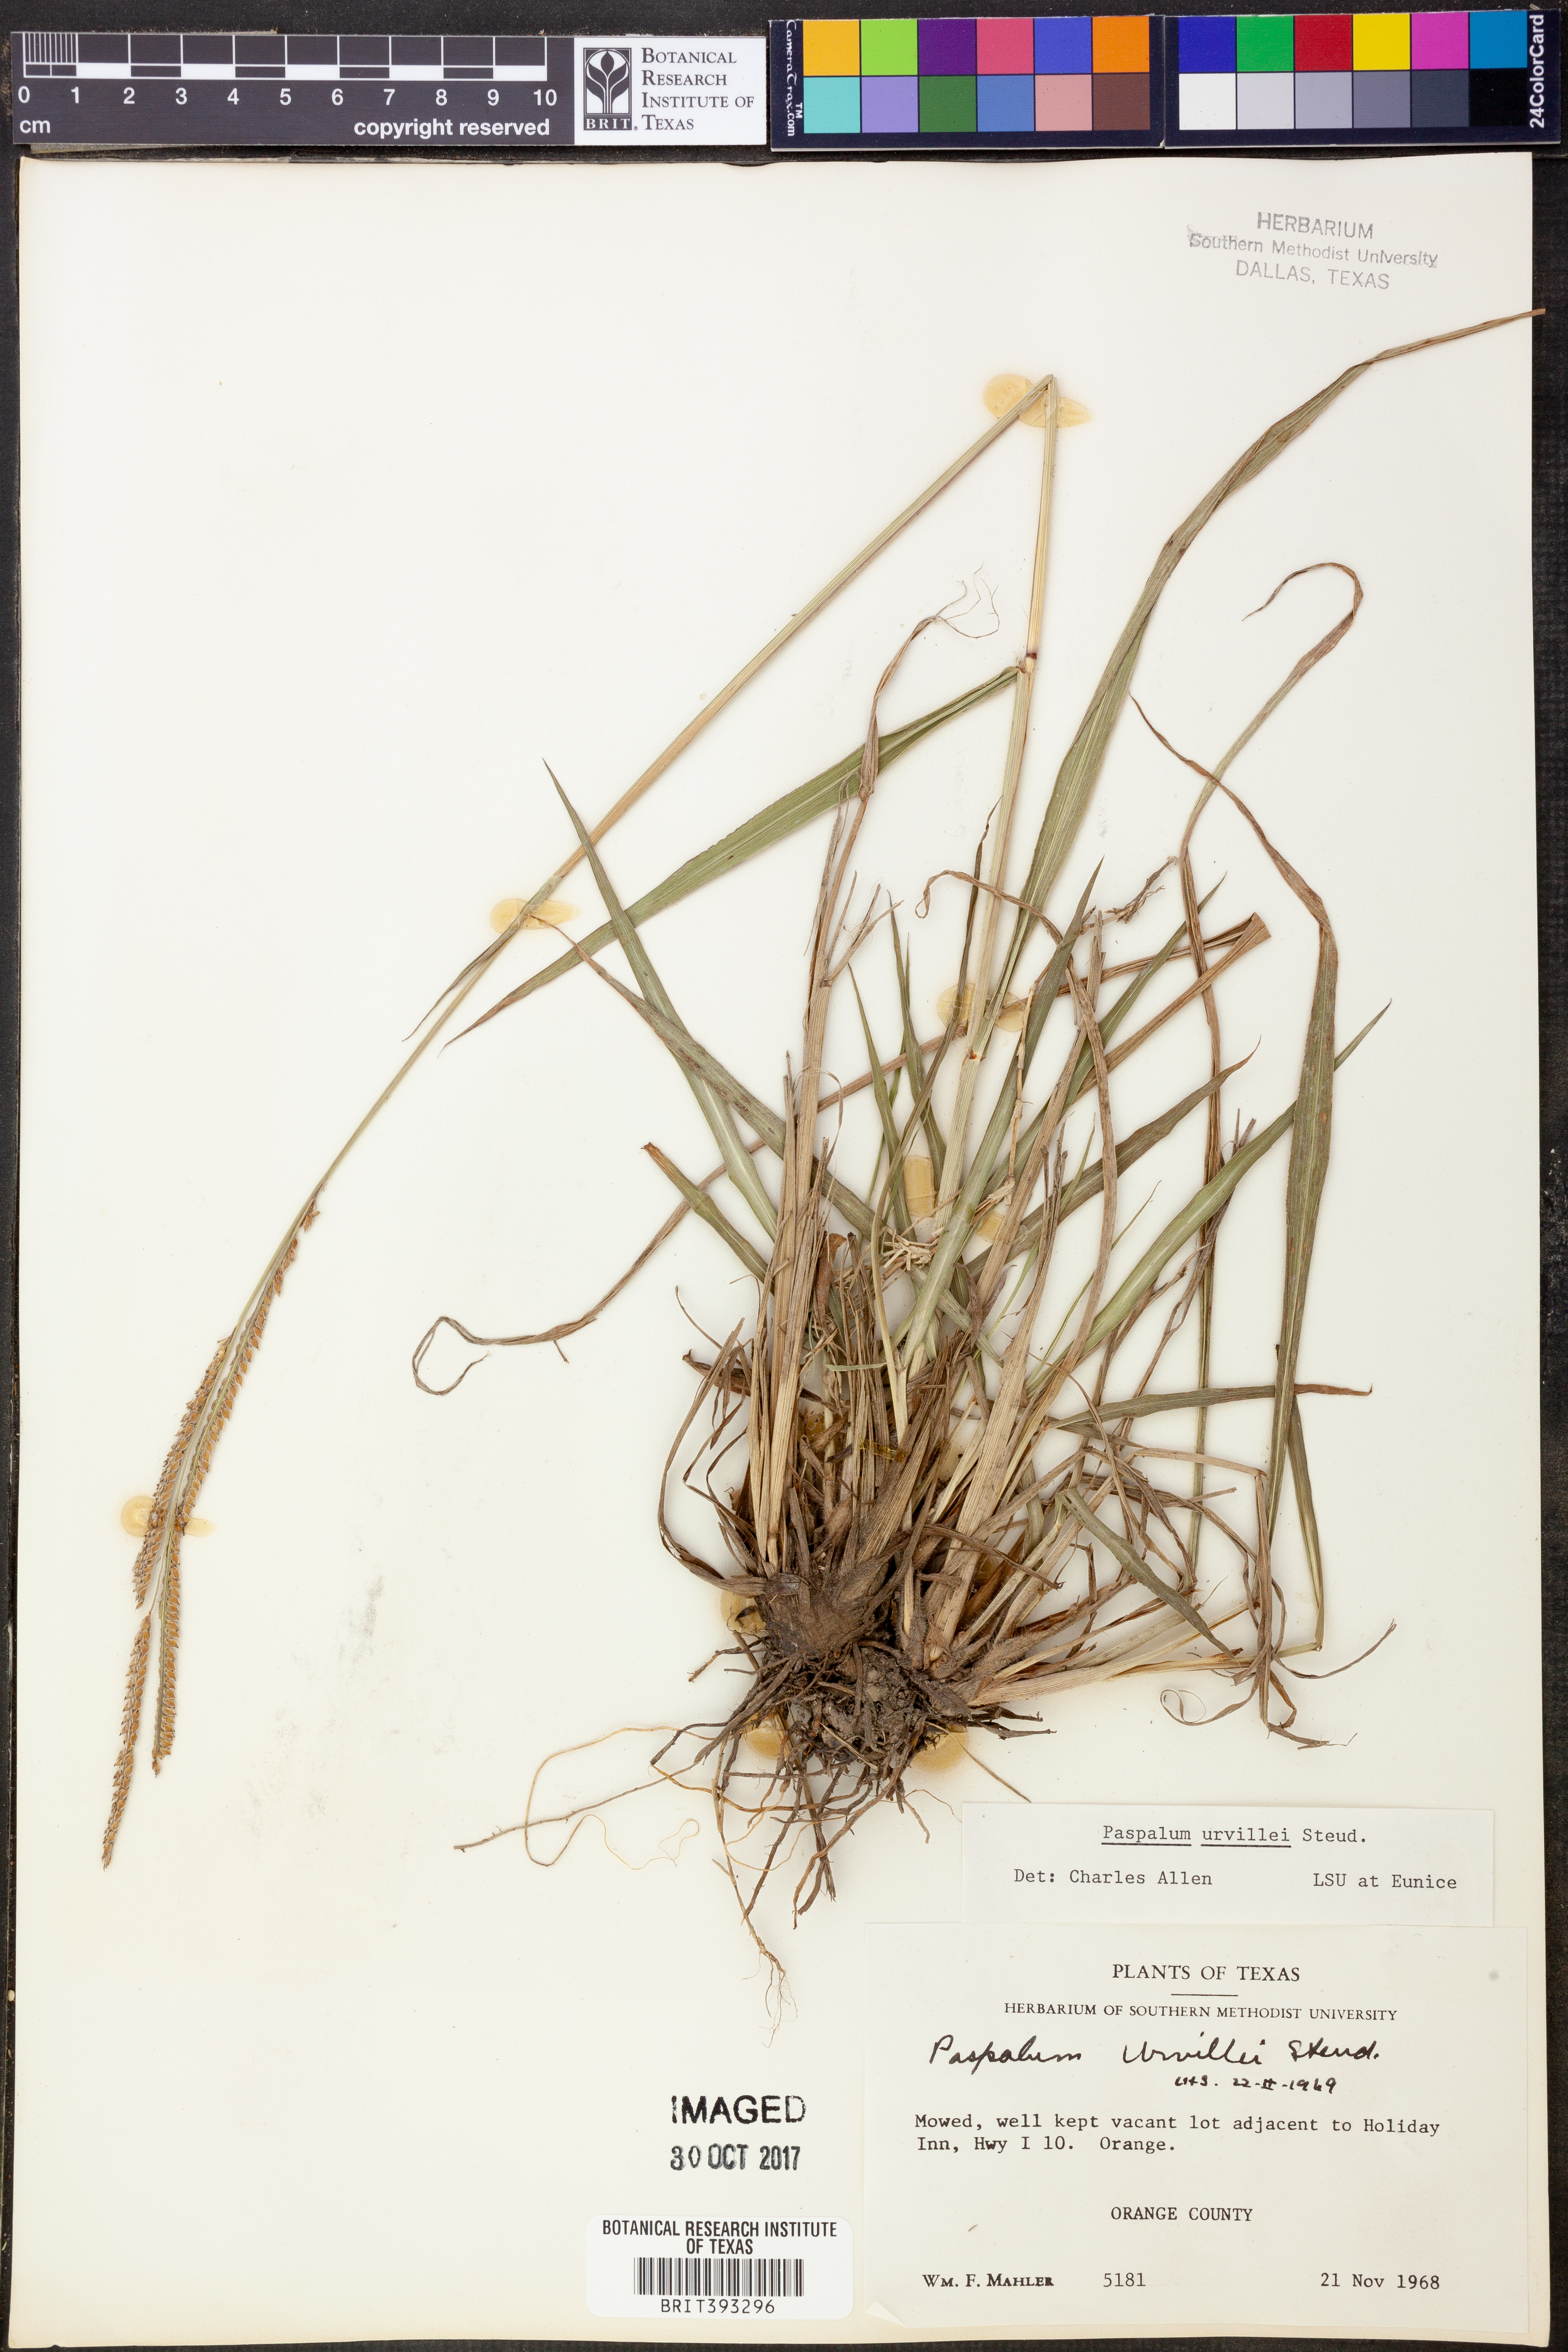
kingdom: Plantae
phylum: Tracheophyta
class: Liliopsida
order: Poales
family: Poaceae
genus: Paspalum
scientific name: Paspalum urvillei
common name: Vasey's grass
